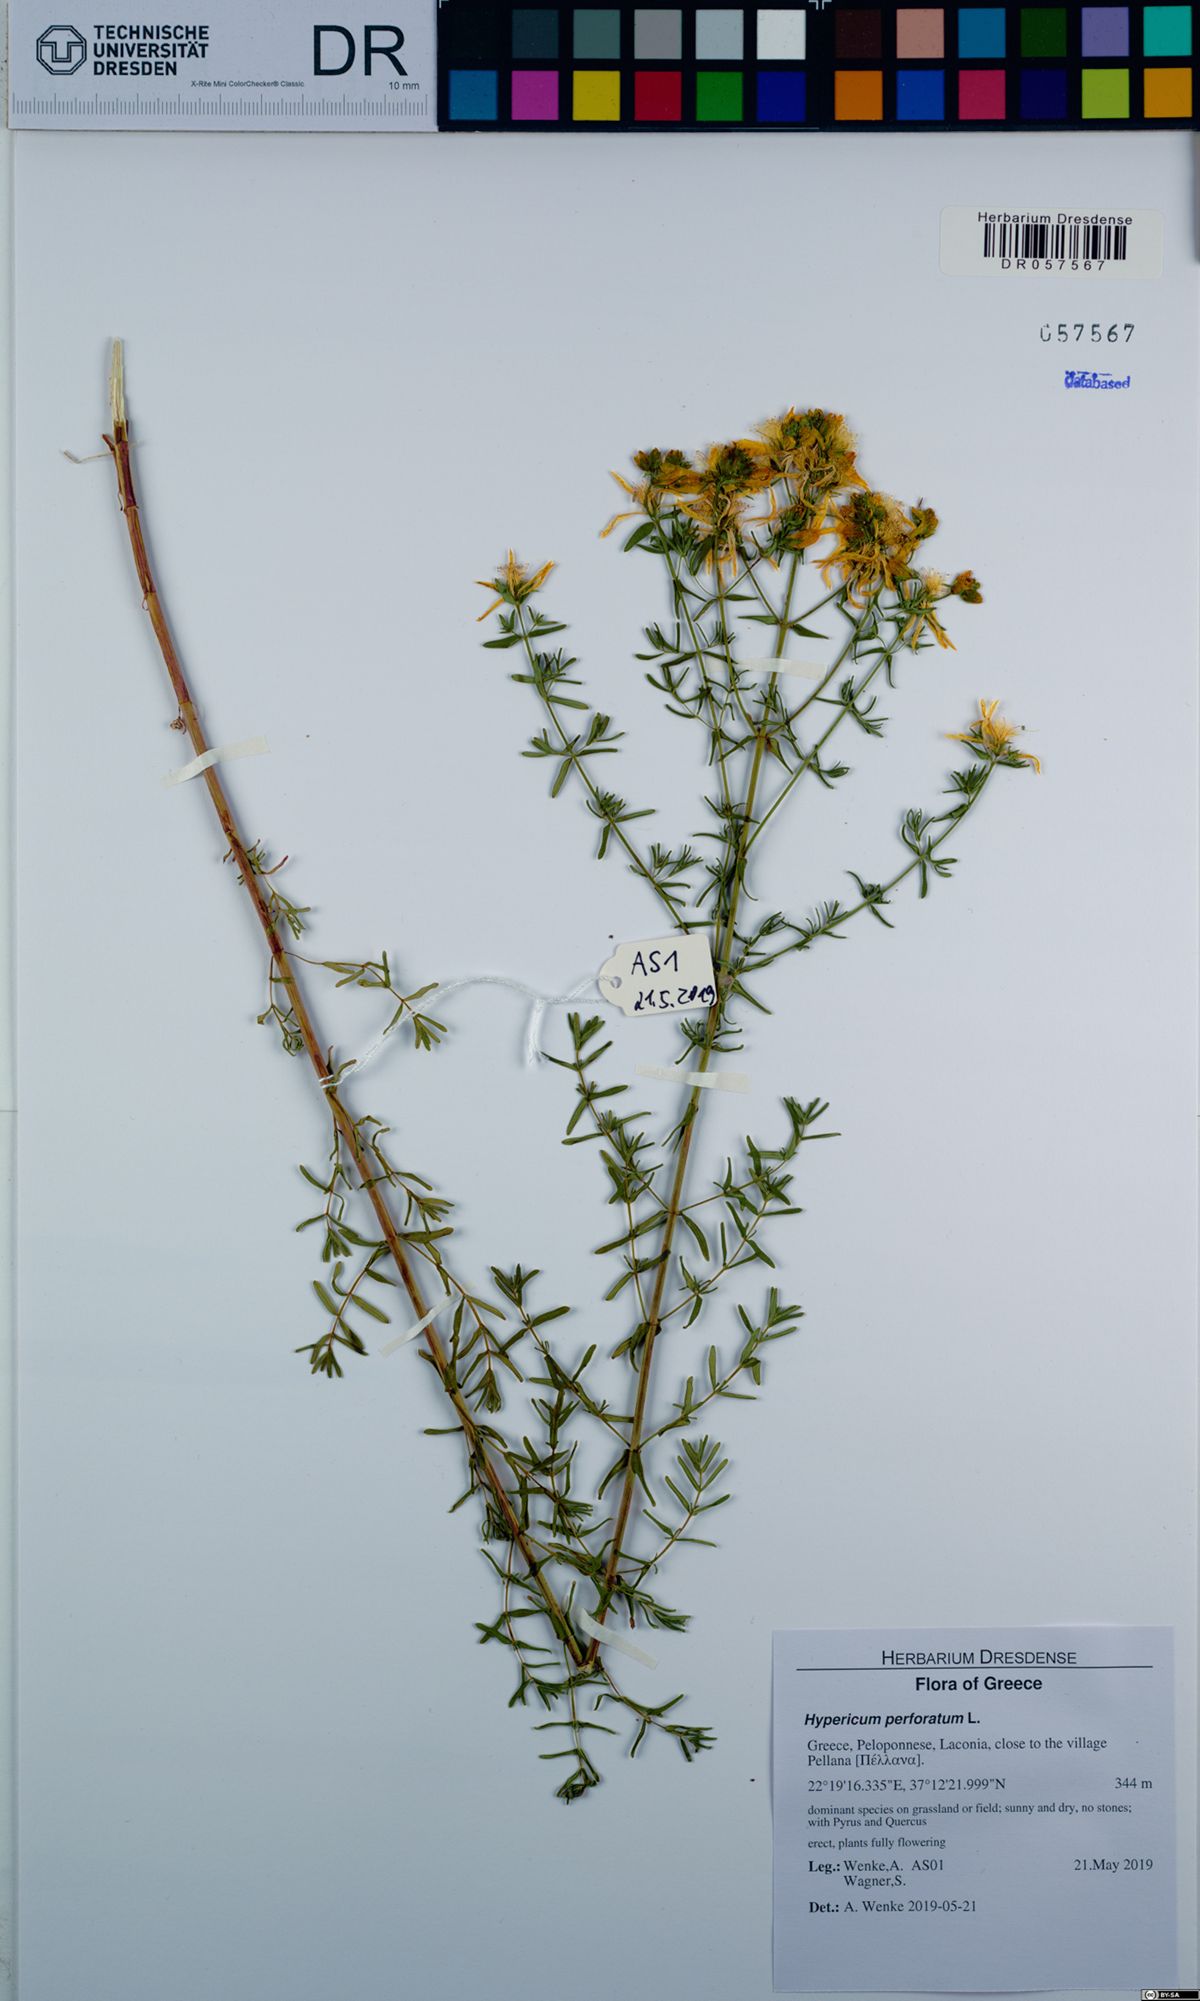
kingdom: Plantae
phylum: Tracheophyta
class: Magnoliopsida
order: Malpighiales
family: Hypericaceae
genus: Hypericum
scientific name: Hypericum perforatum
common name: Common st. johnswort
